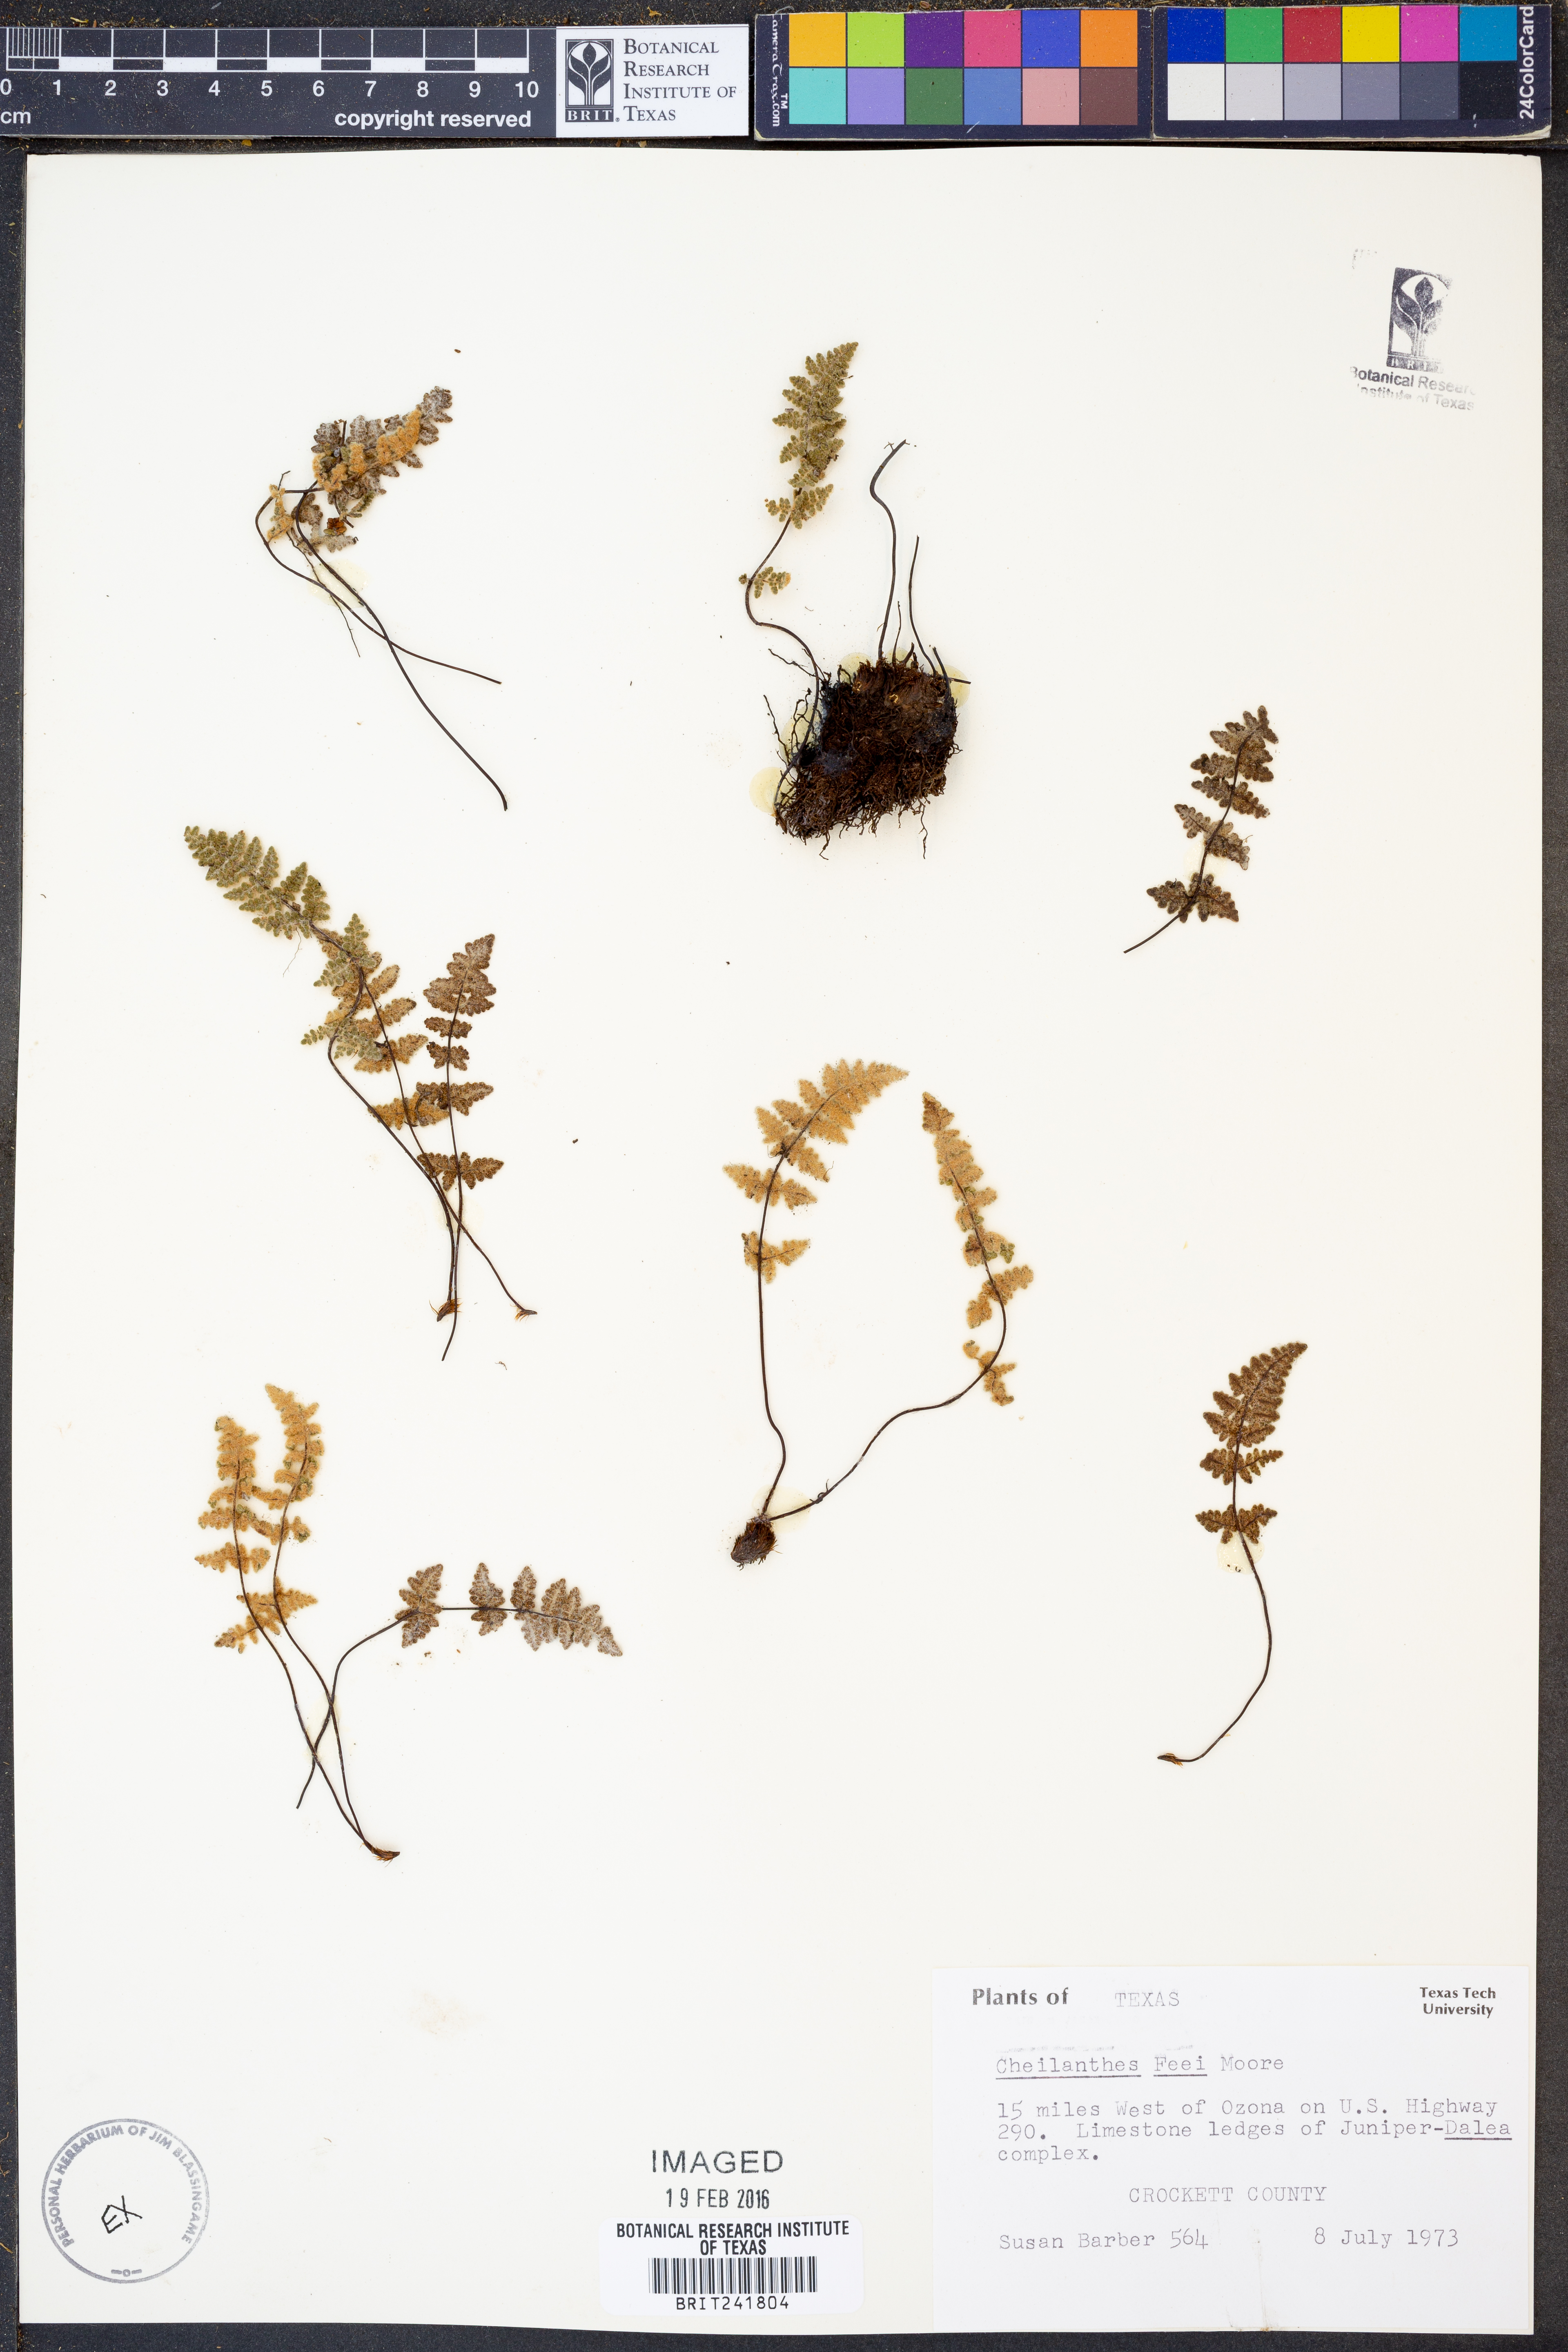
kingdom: Plantae
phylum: Tracheophyta
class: Polypodiopsida
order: Polypodiales
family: Pteridaceae
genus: Myriopteris
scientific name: Myriopteris gracilis
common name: Fee's lip fern
